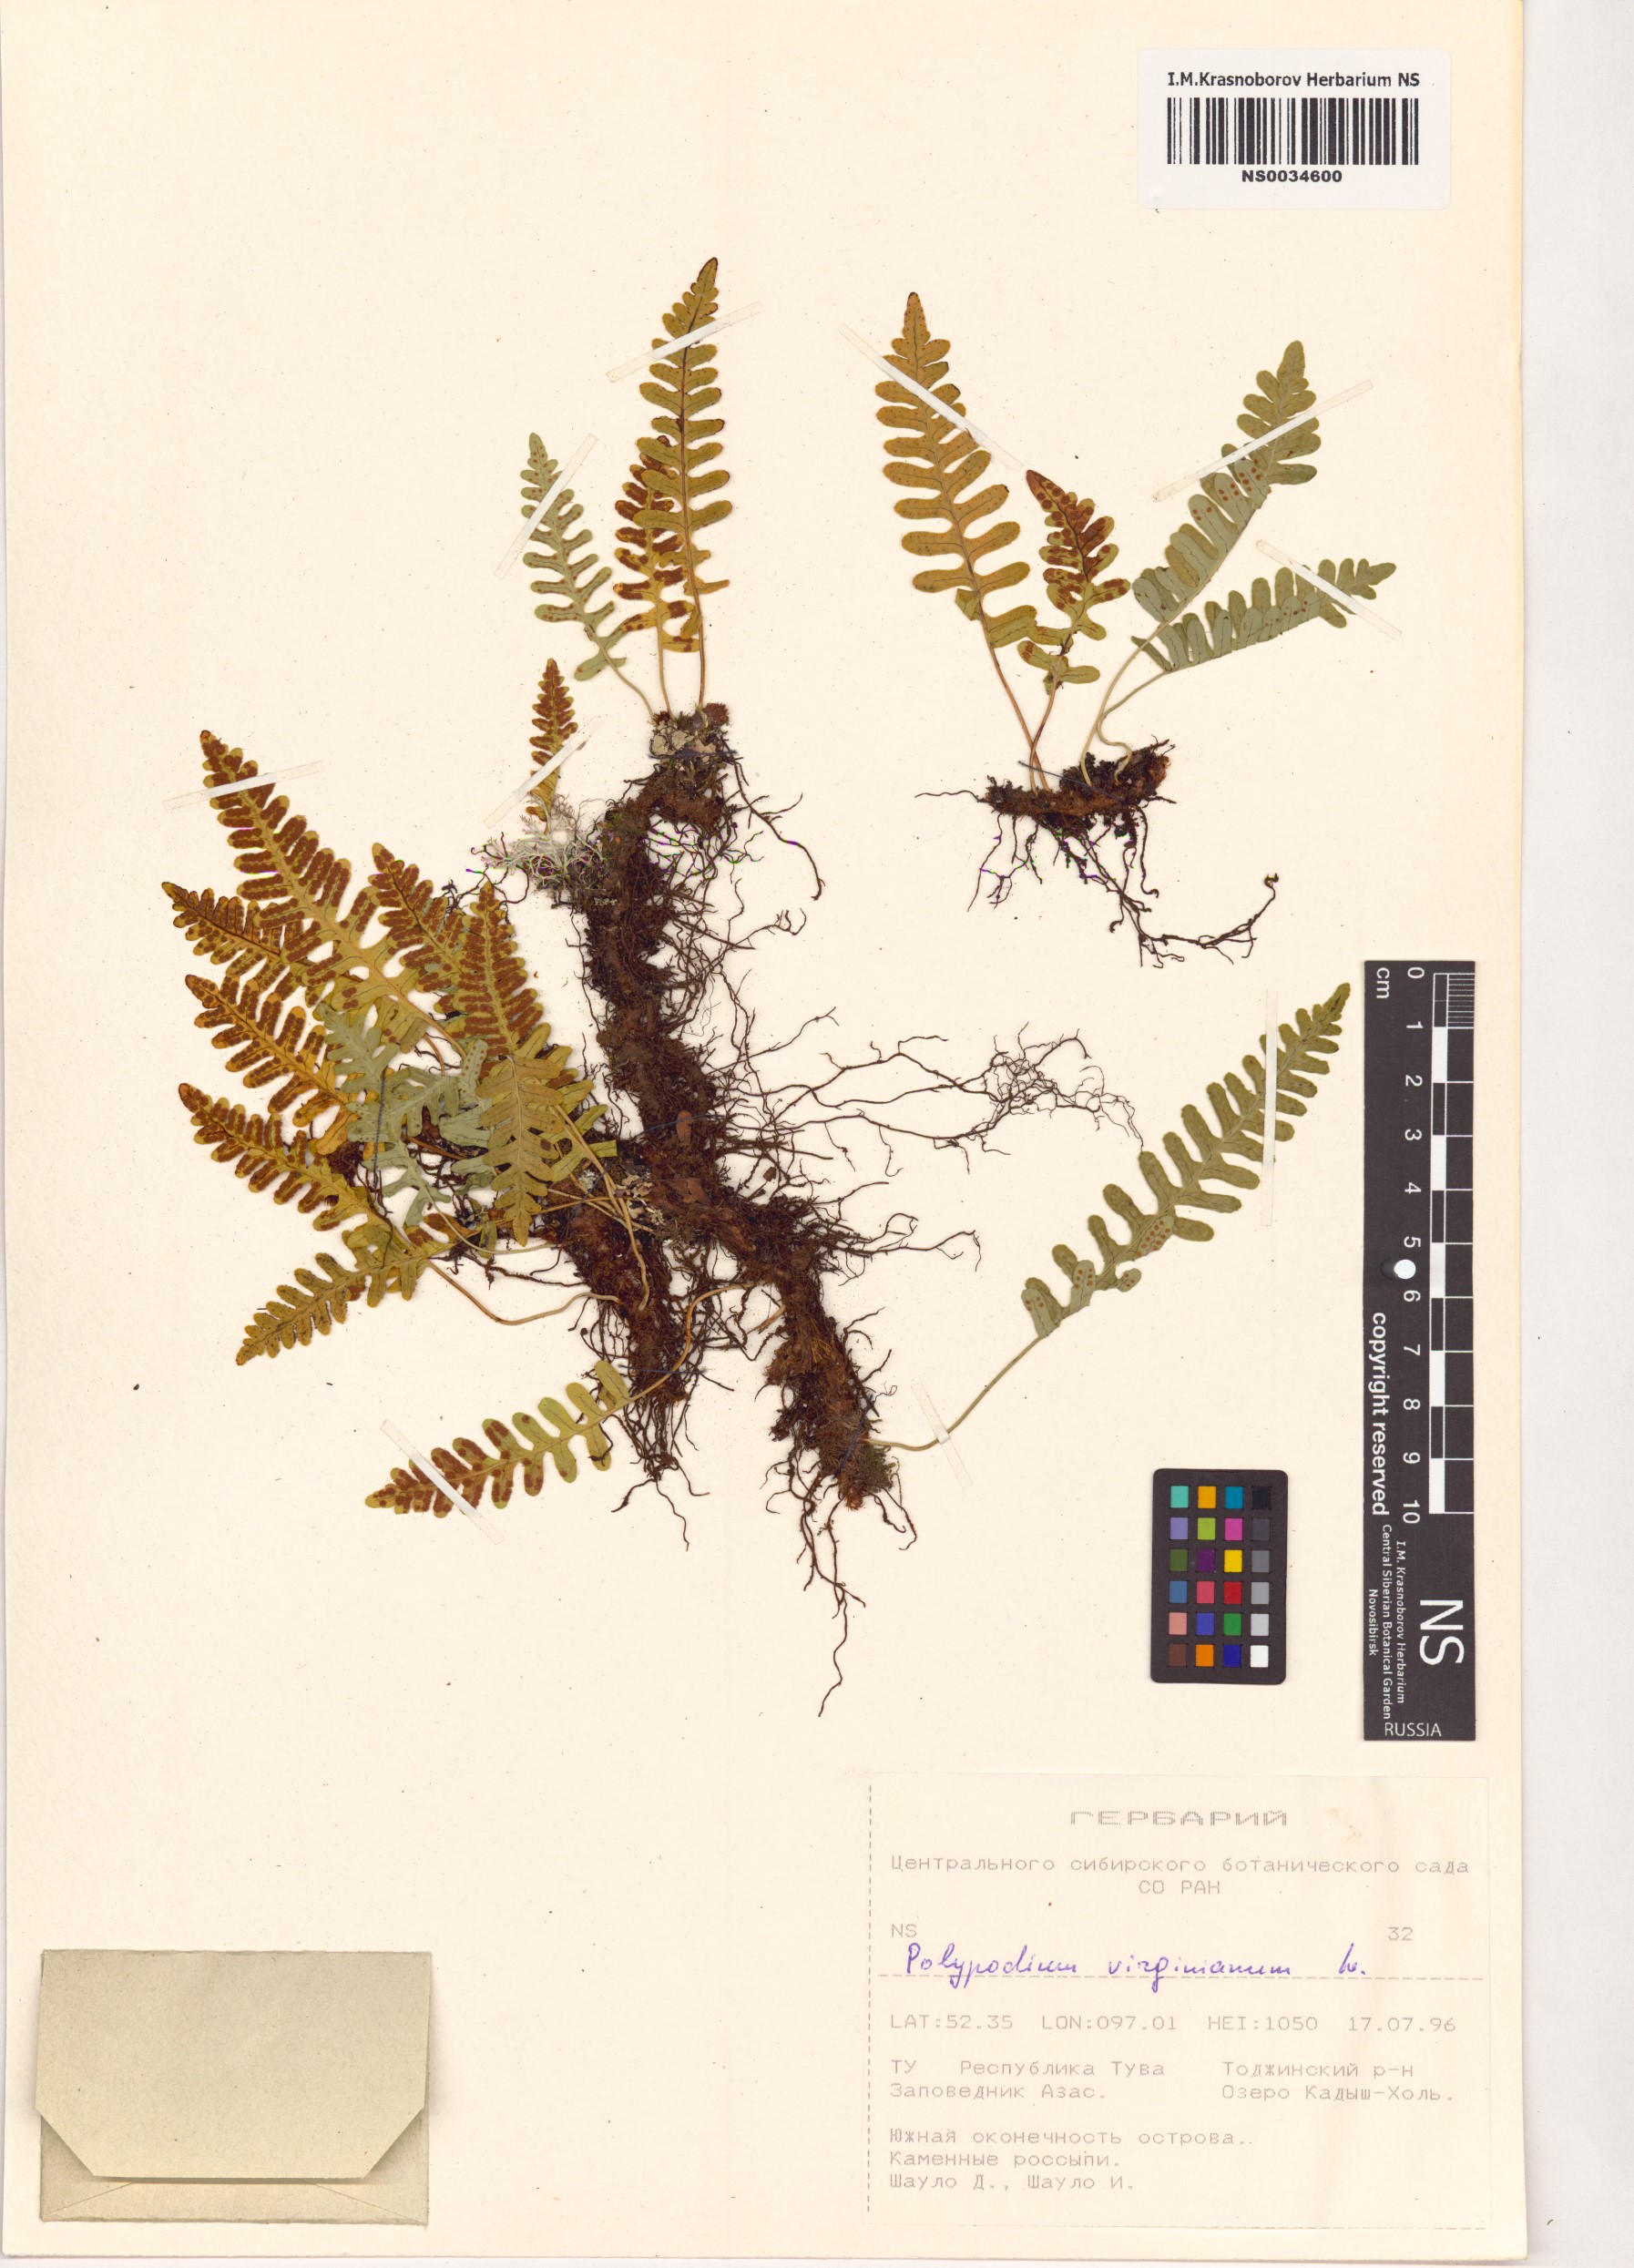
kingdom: Plantae
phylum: Tracheophyta
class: Polypodiopsida
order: Polypodiales
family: Polypodiaceae
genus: Polypodium
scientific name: Polypodium virginianum
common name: American wall fern
